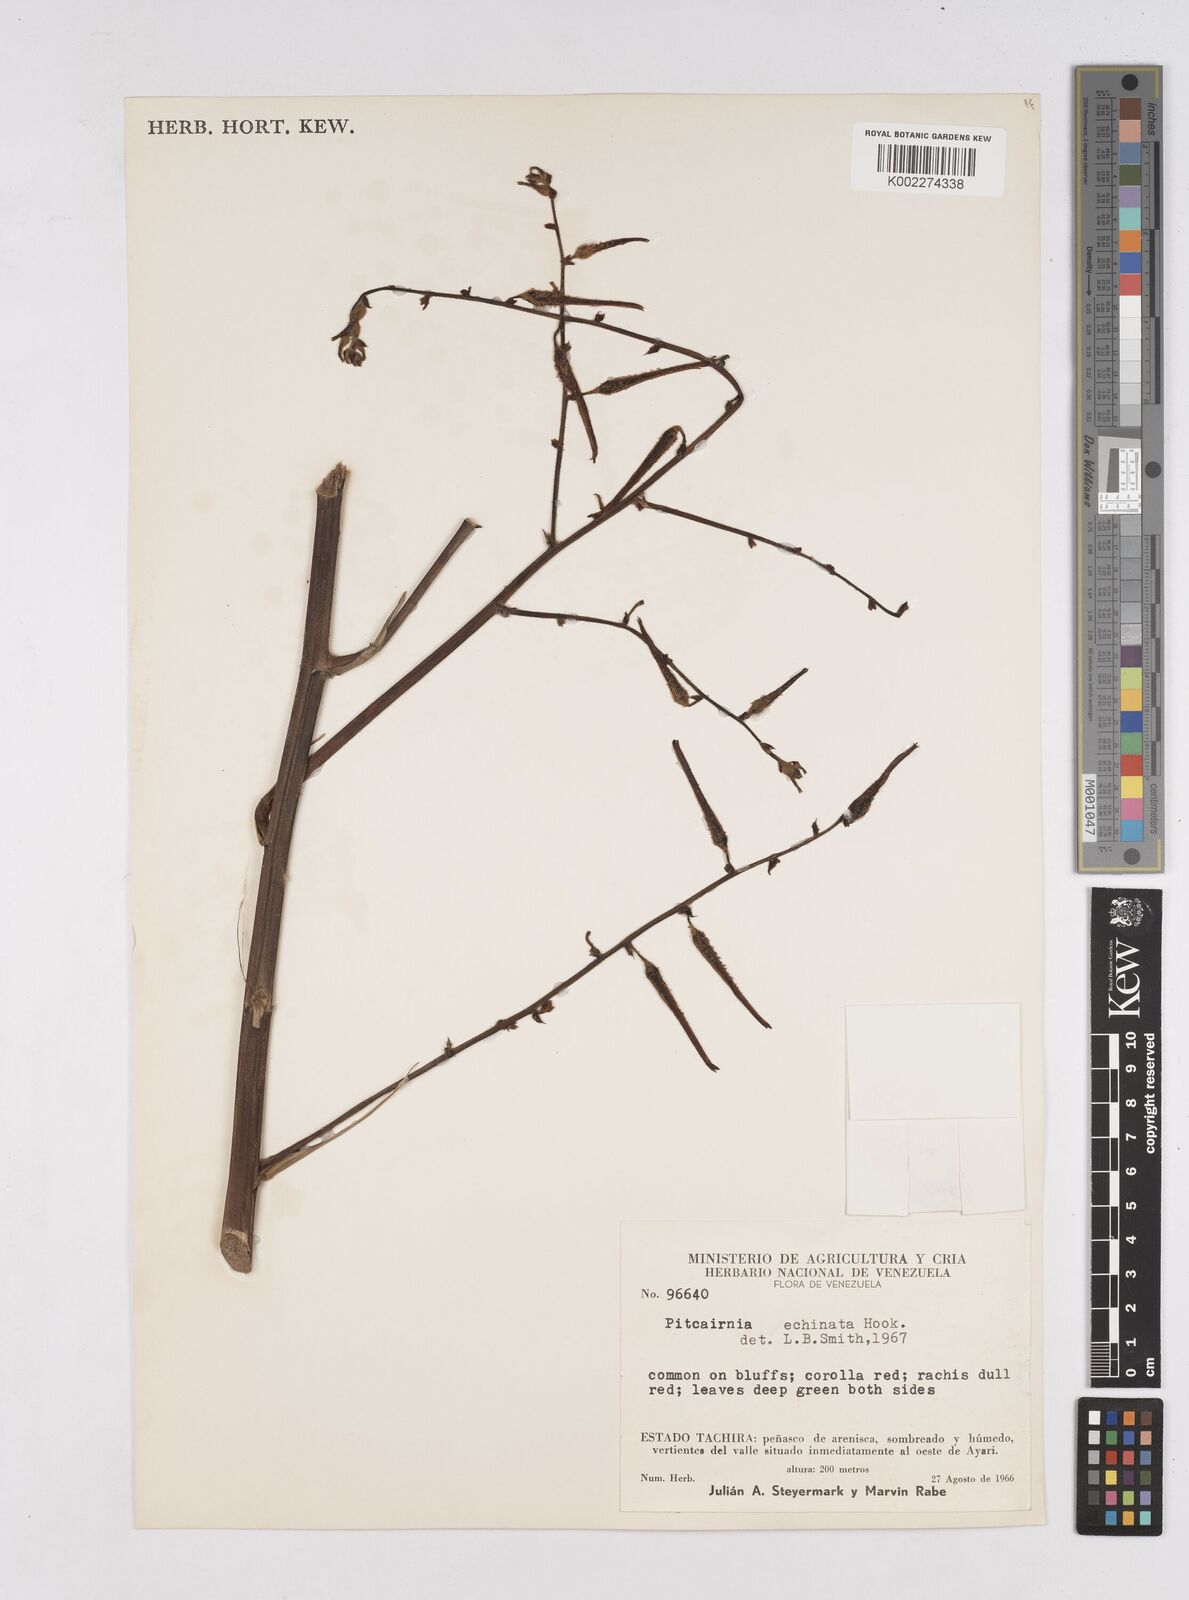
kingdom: Plantae
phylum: Tracheophyta
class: Liliopsida
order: Poales
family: Bromeliaceae
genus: Pitcairnia
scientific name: Pitcairnia echinata
